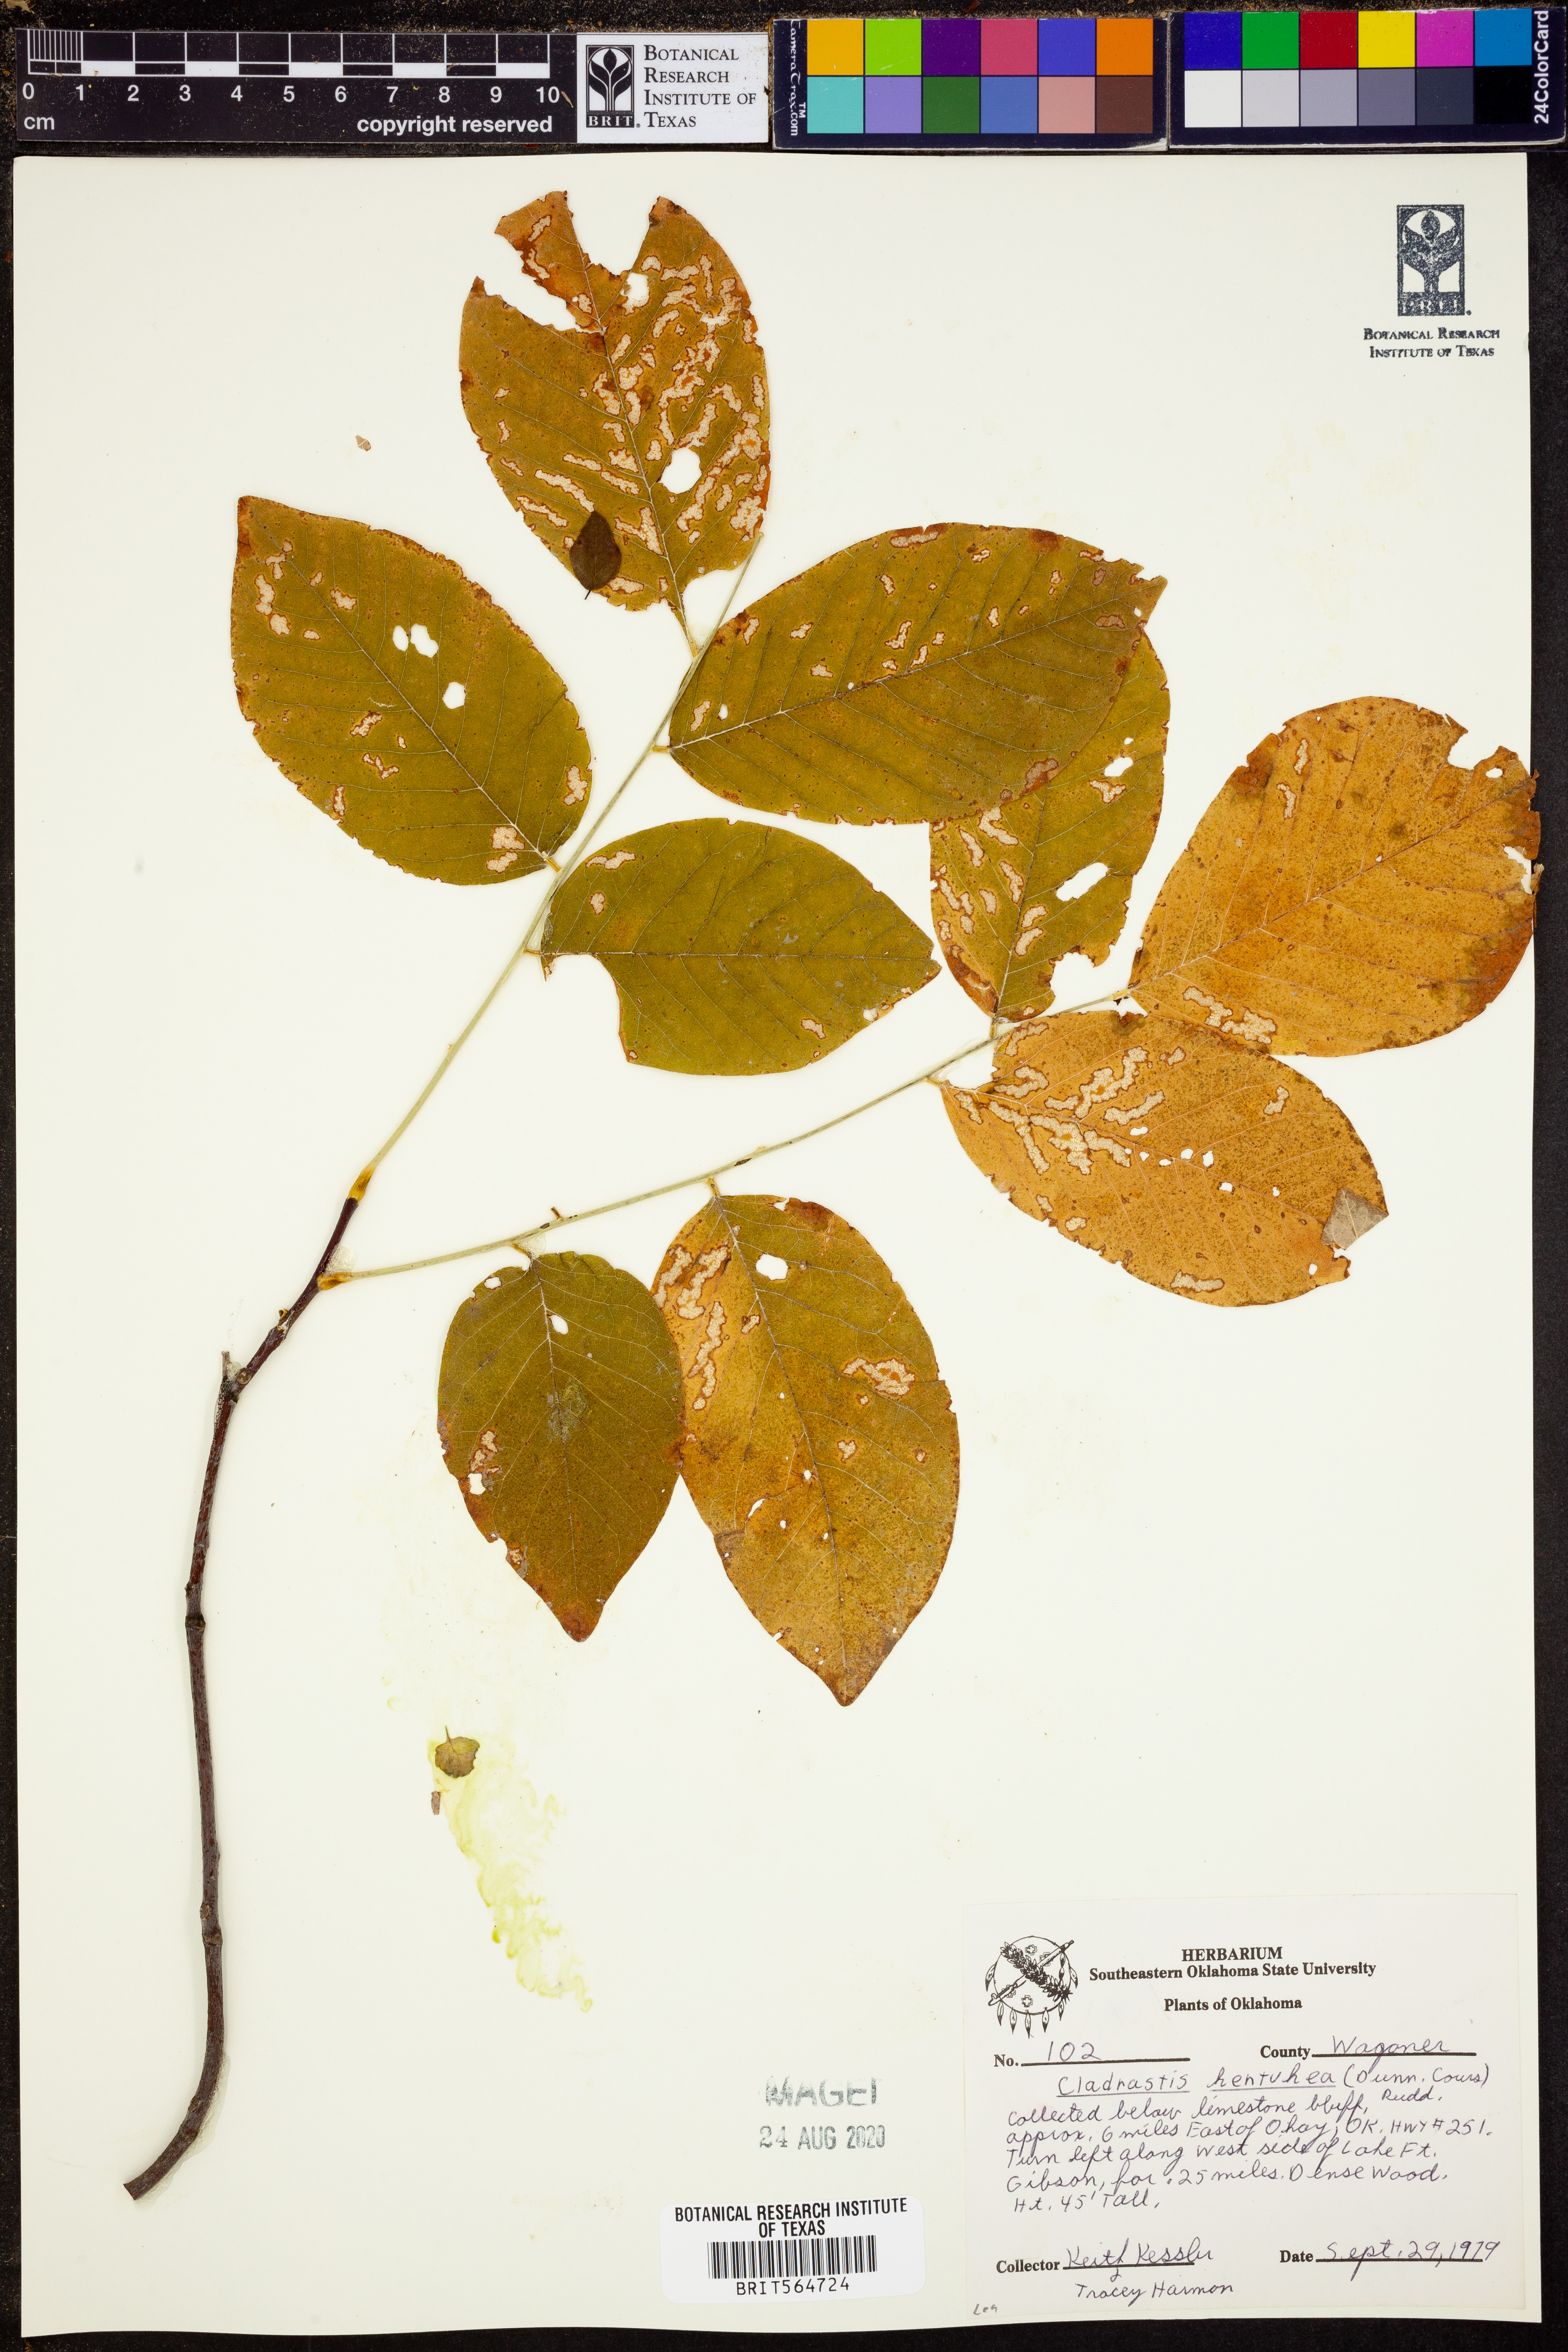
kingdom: Plantae
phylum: Tracheophyta
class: Magnoliopsida
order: Fabales
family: Fabaceae
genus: Cladrastis
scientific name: Cladrastis kentukea
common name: Kentucky yellow-wood
